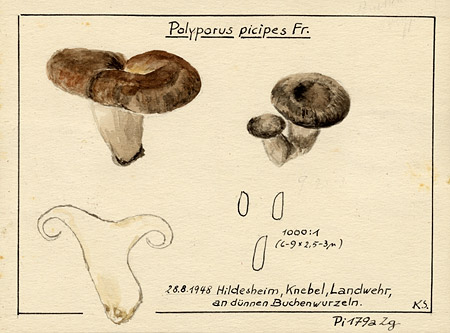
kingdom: Plantae
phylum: Tracheophyta
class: Magnoliopsida
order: Fagales
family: Fagaceae
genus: Fagus
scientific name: Fagus
